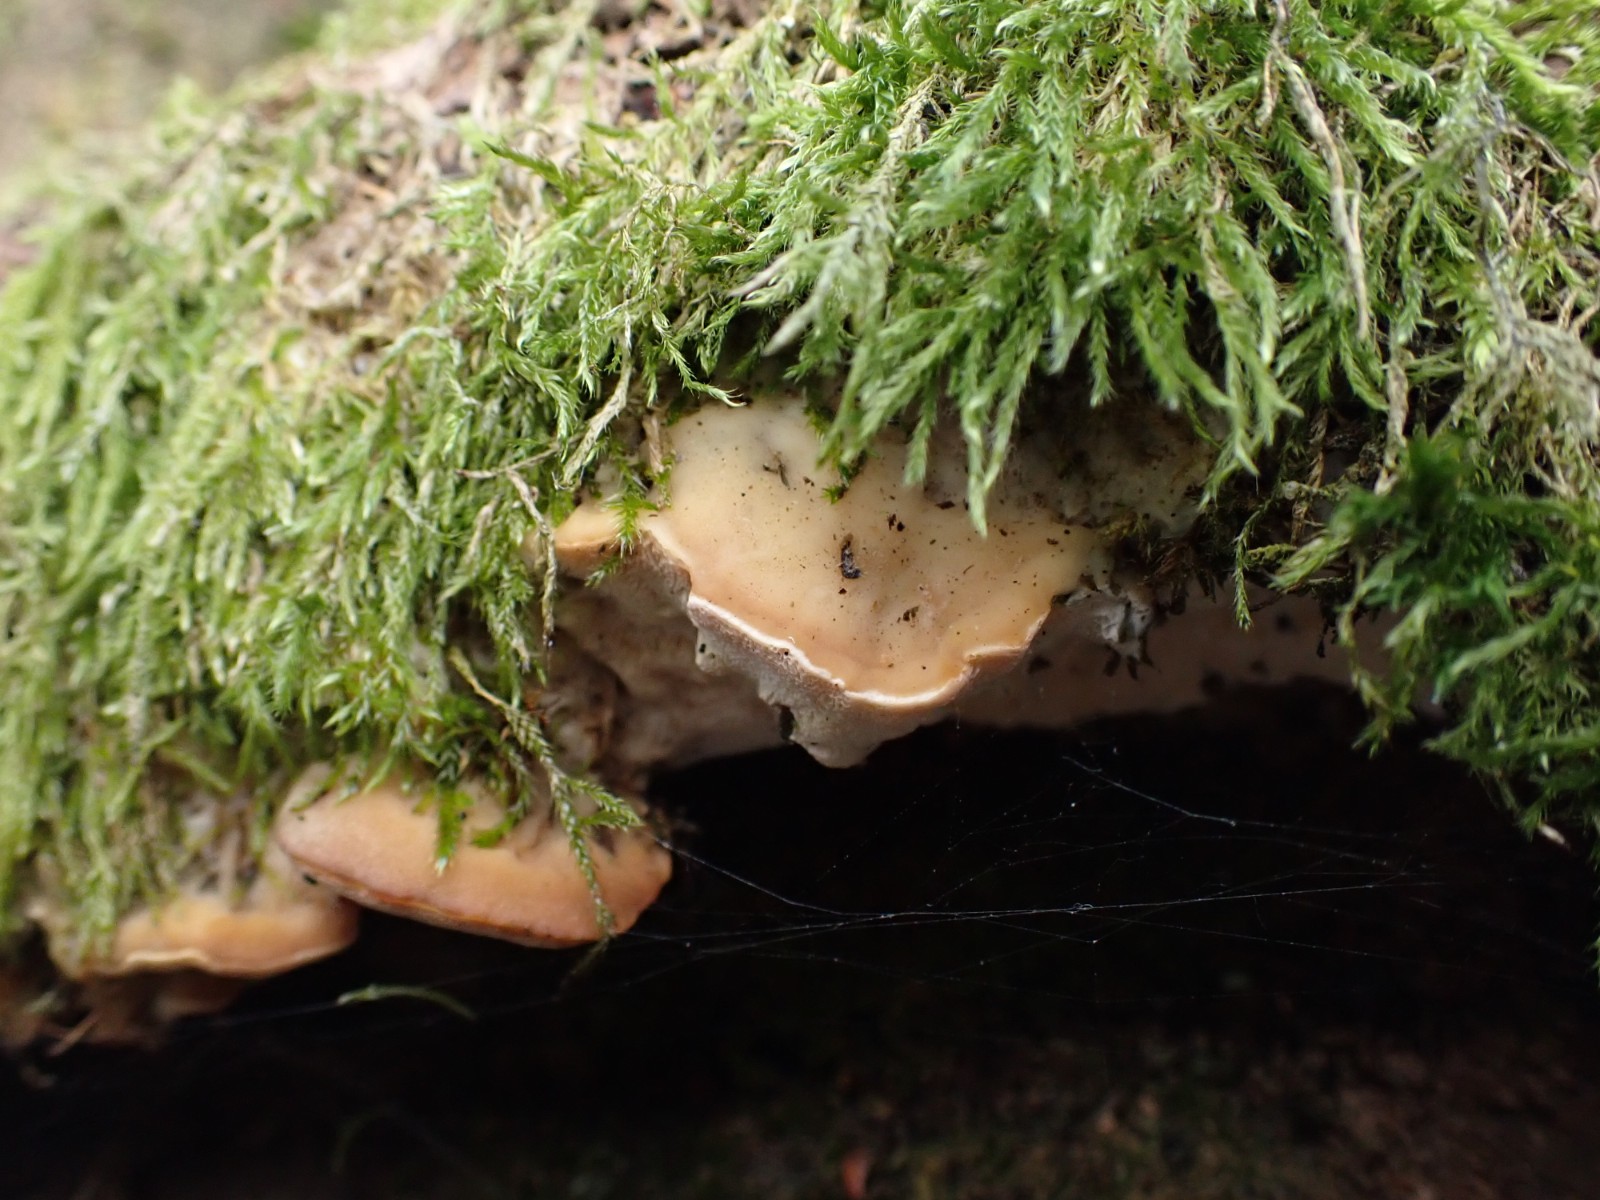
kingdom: Fungi
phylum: Basidiomycota
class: Agaricomycetes
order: Hymenochaetales
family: Oxyporaceae
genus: Oxyporus
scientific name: Oxyporus populinus
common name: sammenvokset trylleporesvamp
